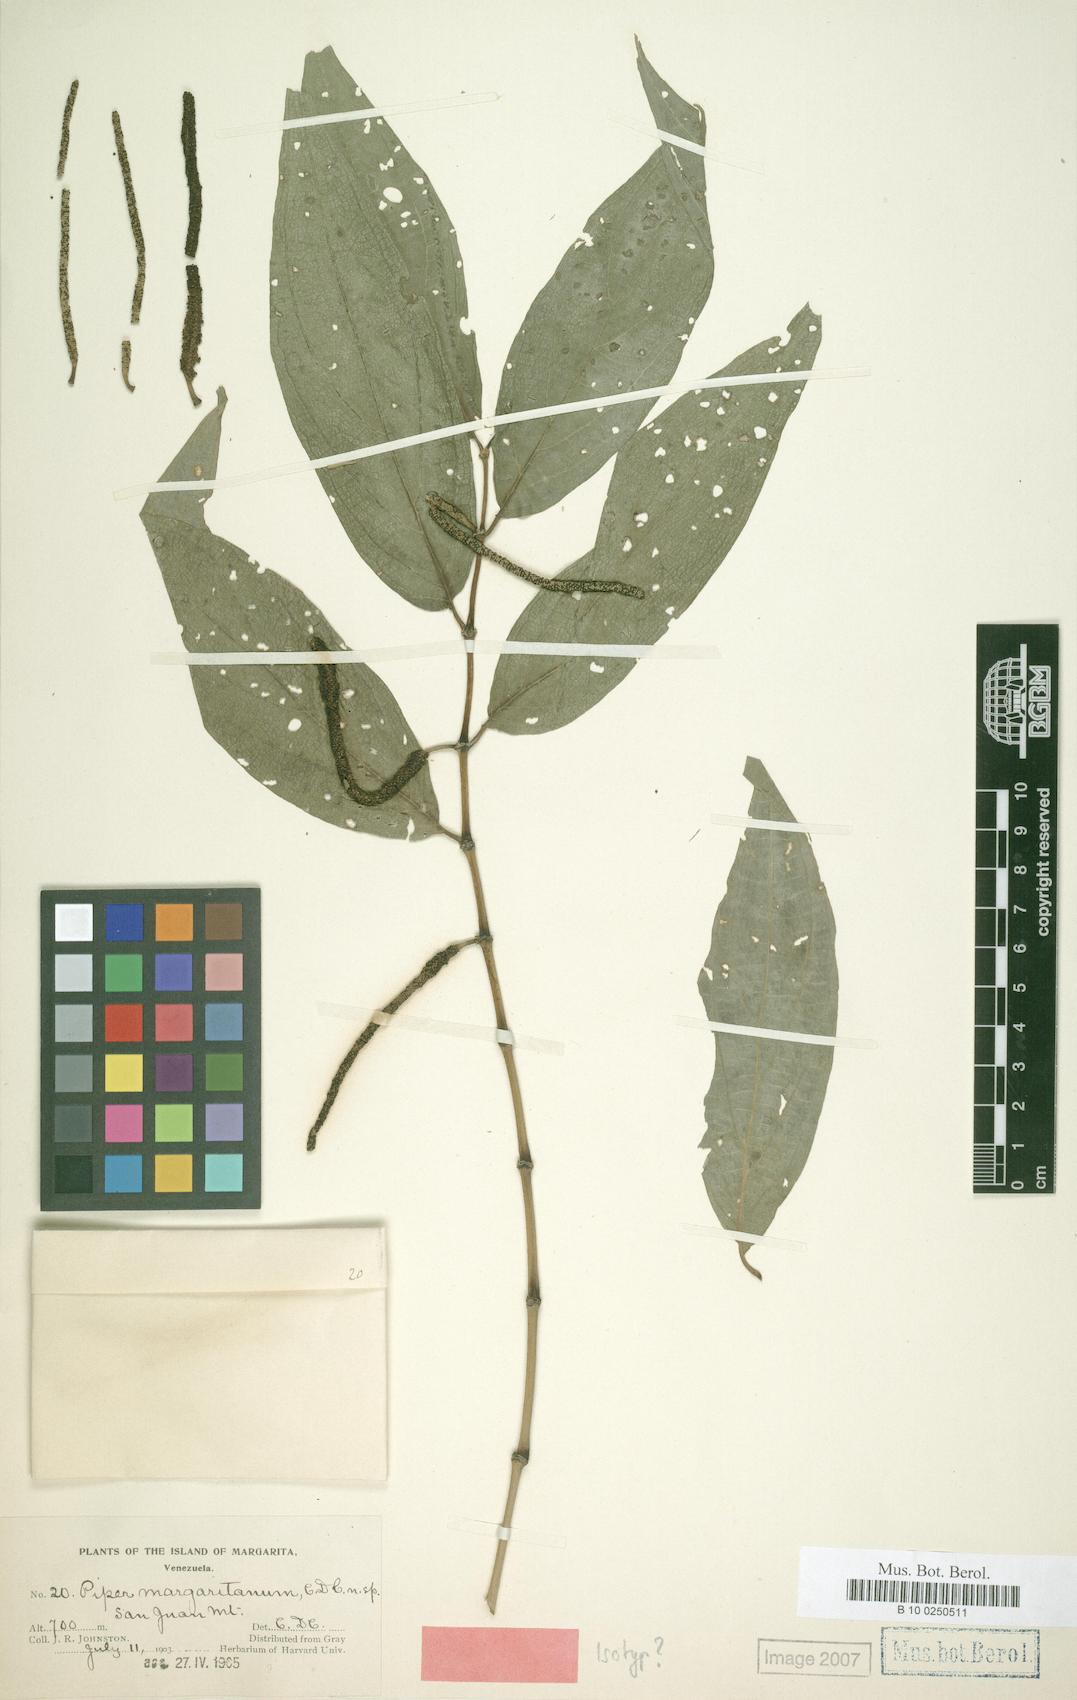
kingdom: Plantae
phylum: Tracheophyta
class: Magnoliopsida
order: Piperales
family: Piperaceae
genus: Piper
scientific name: Piper dilatatum
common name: Higuillo
